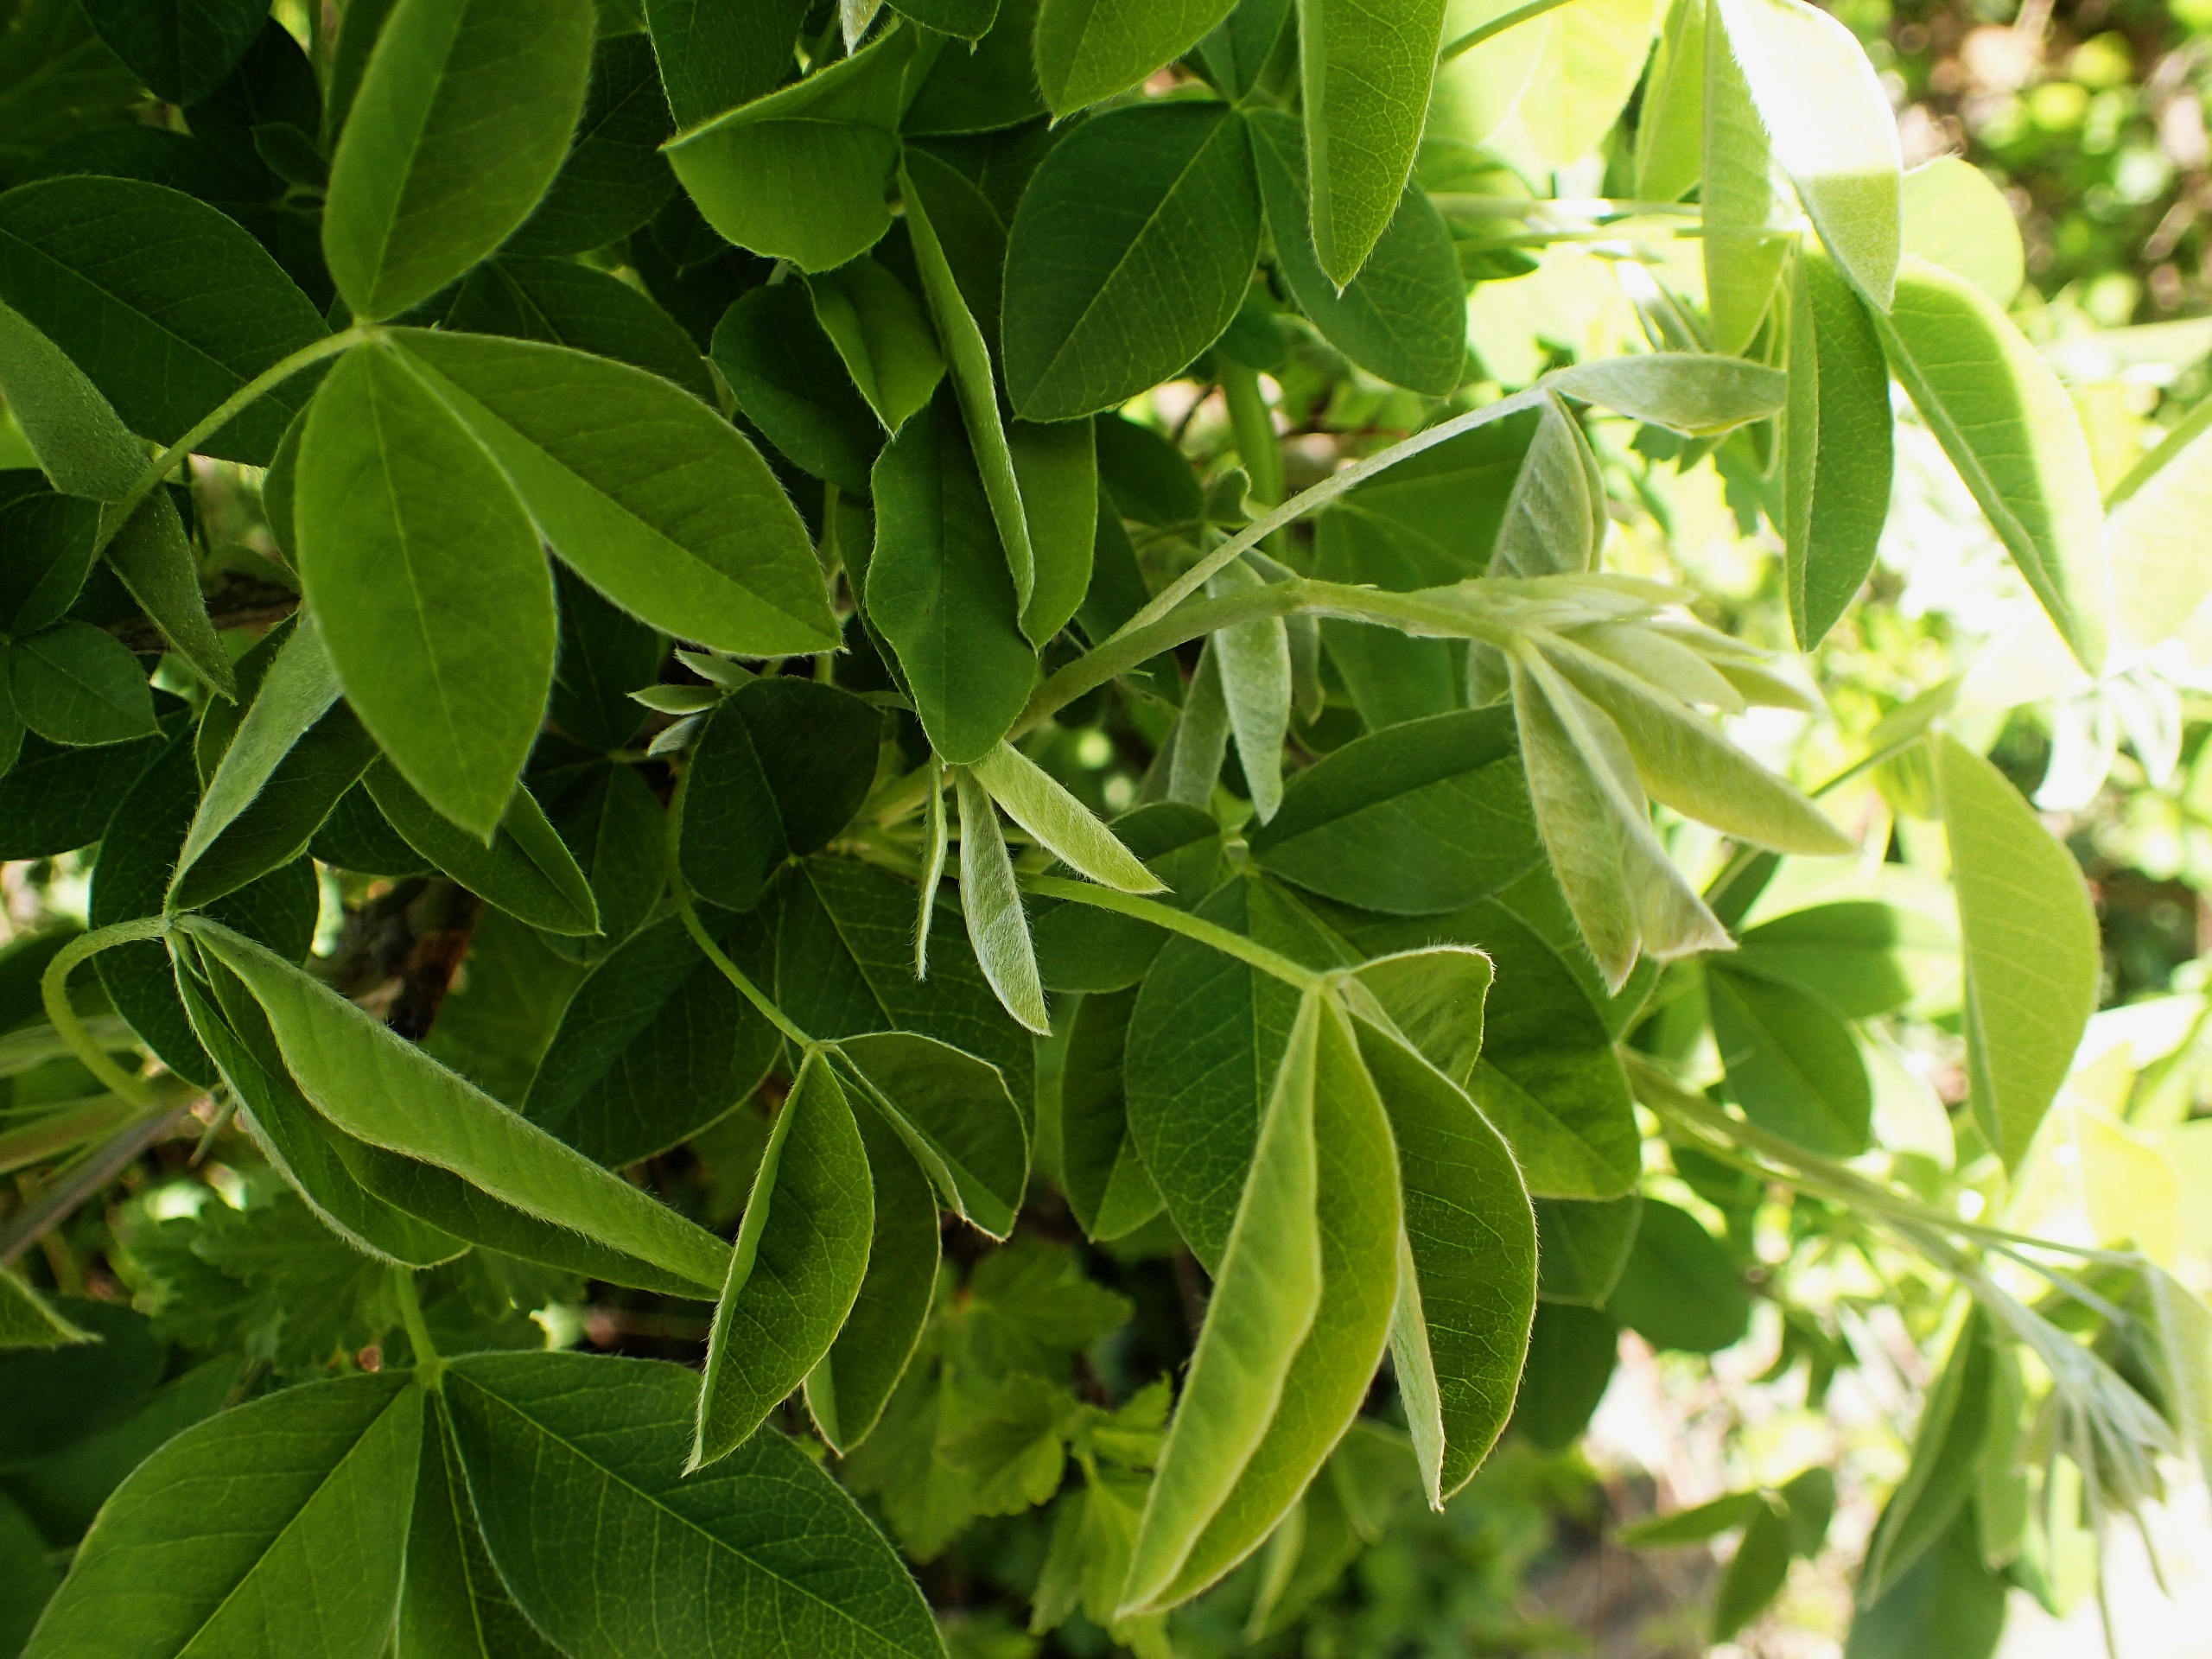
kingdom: Plantae
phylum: Tracheophyta
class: Magnoliopsida
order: Fabales
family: Fabaceae
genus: Laburnum
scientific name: Laburnum anagyroides
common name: Guldregn
